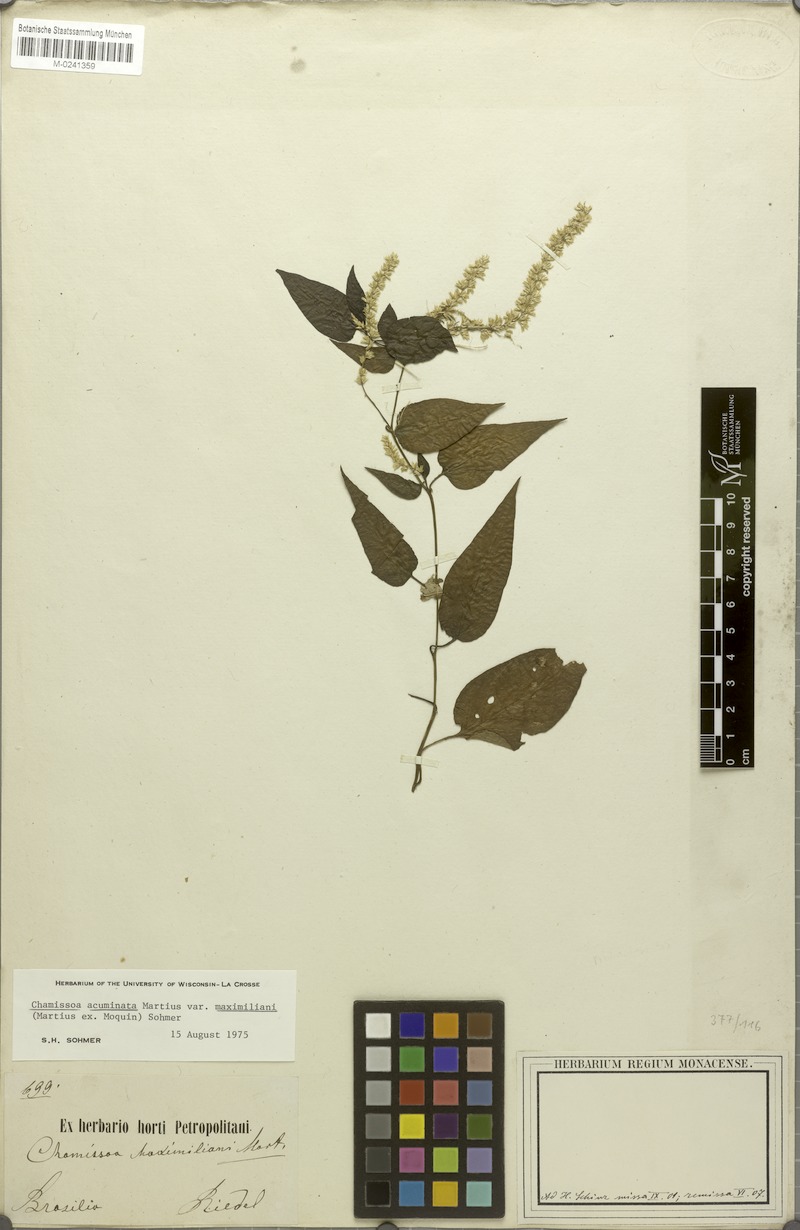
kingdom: Plantae
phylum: Tracheophyta
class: Magnoliopsida
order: Caryophyllales
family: Amaranthaceae
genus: Chamissoa
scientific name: Chamissoa maximiliani
